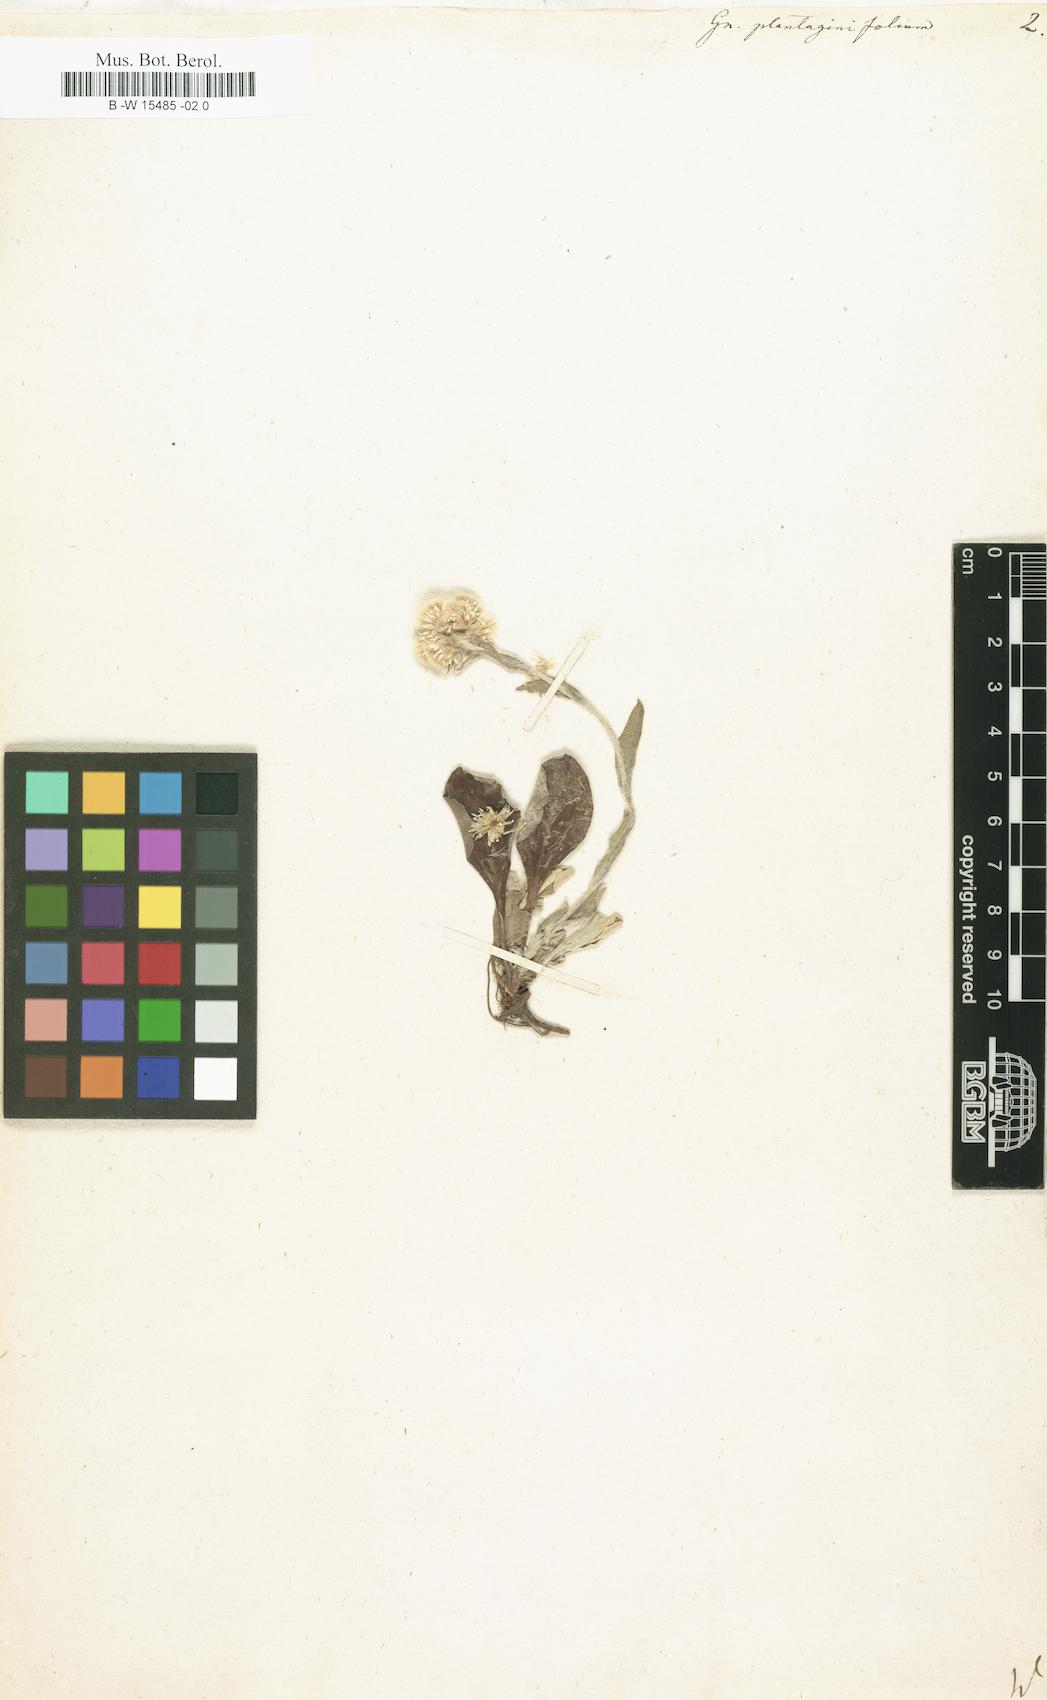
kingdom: Plantae
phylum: Tracheophyta
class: Magnoliopsida
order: Asterales
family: Asteraceae
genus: Antennaria
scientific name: Antennaria plantaginifolia
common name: Plantain-leaved pussytoes
